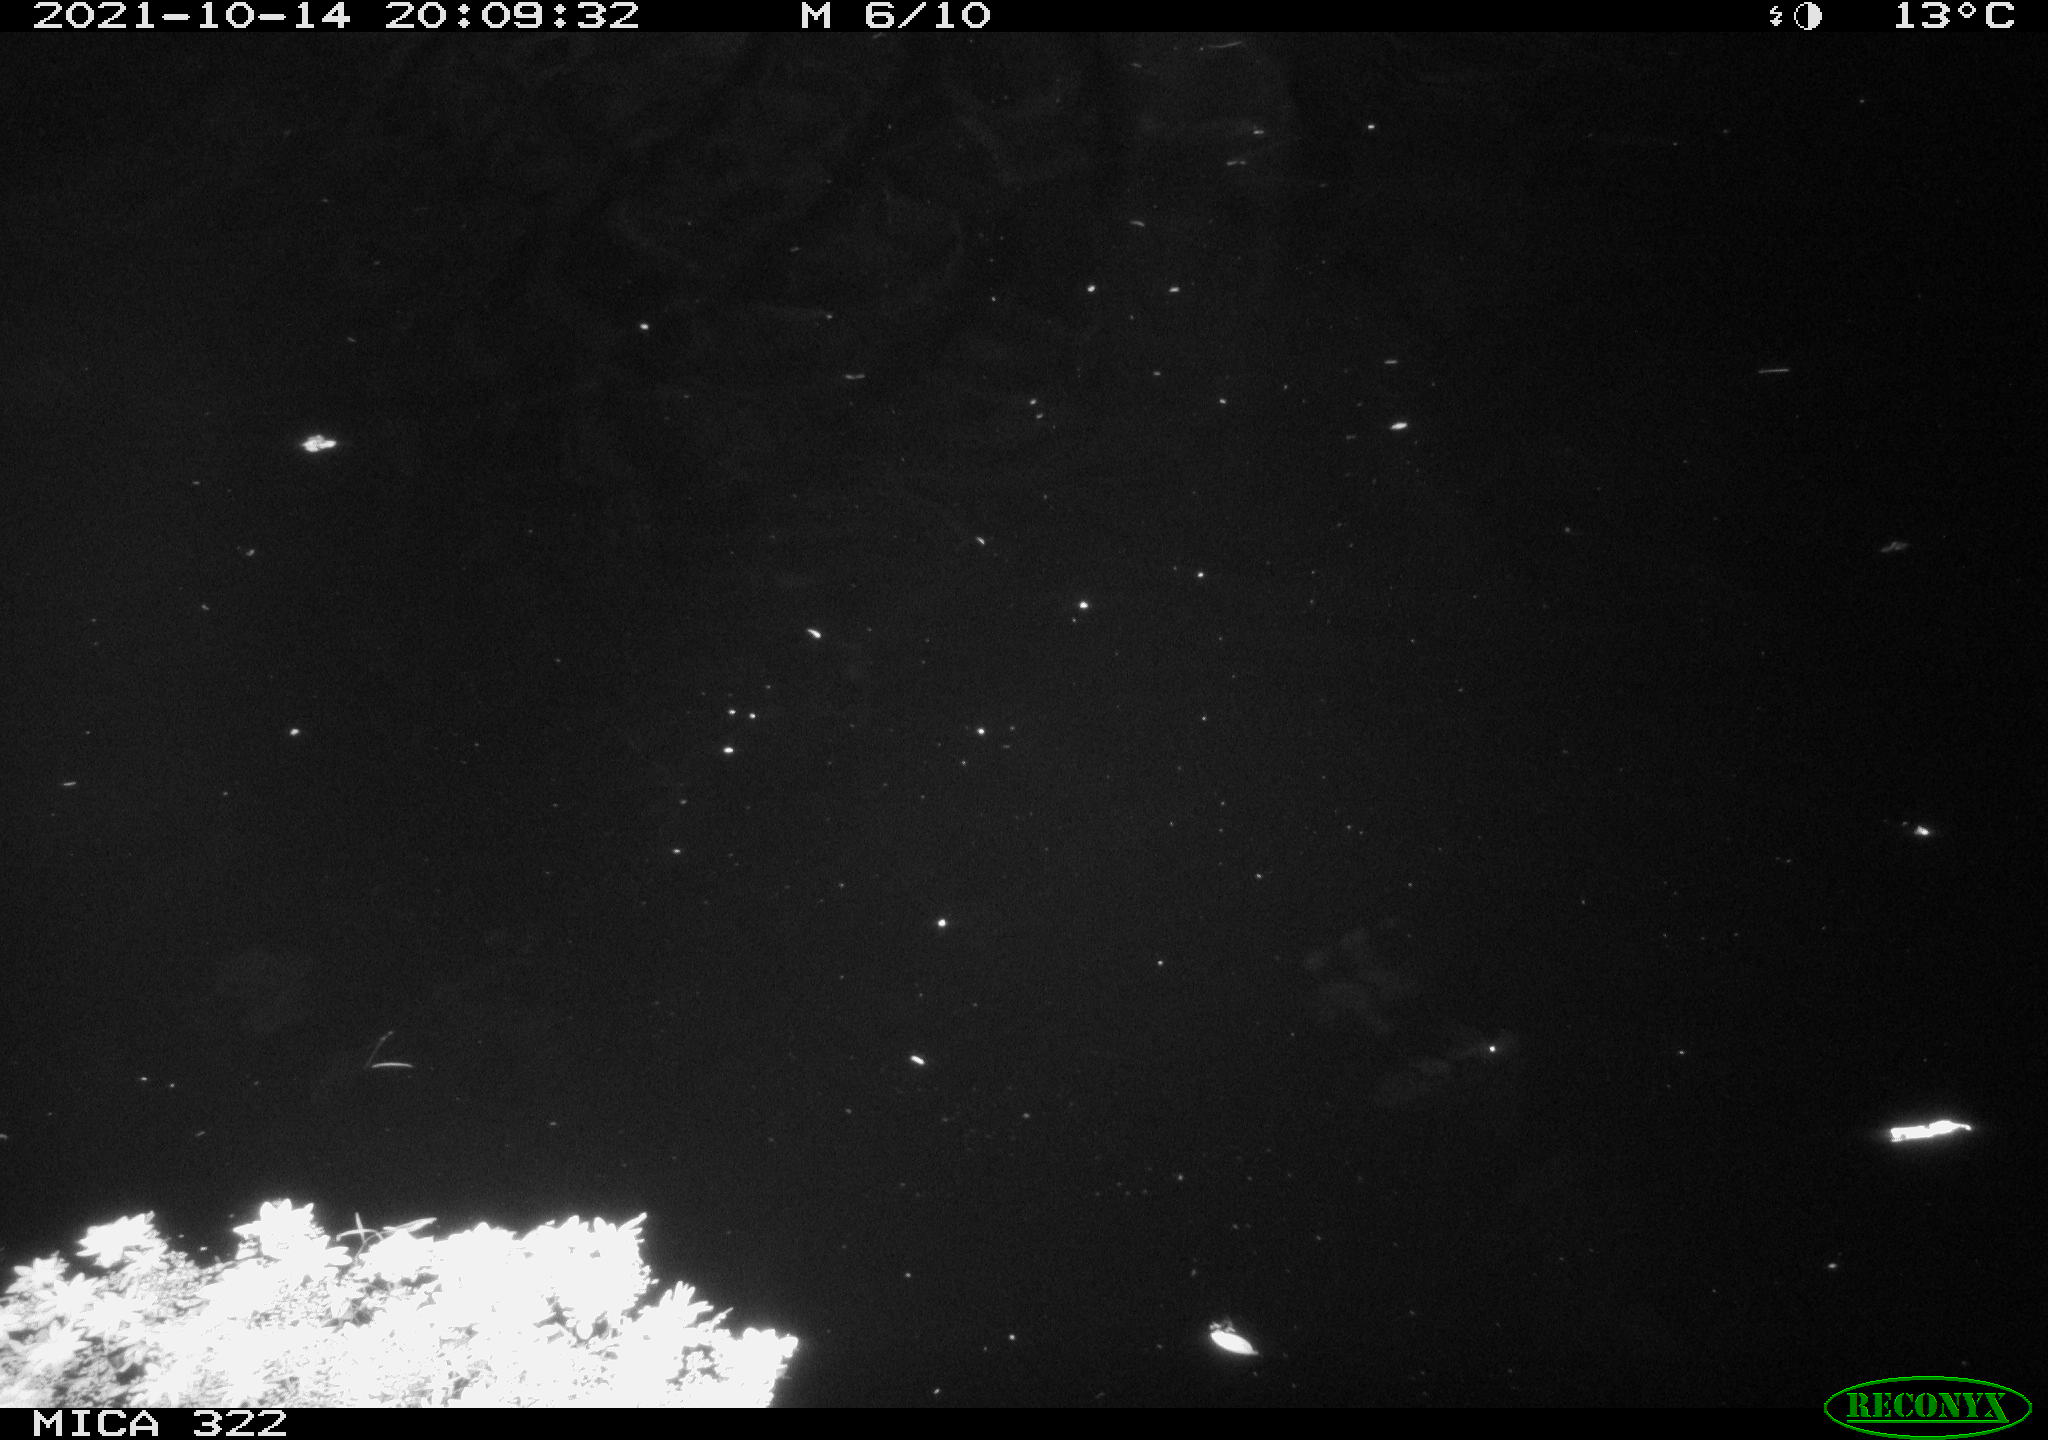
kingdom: Animalia
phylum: Chordata
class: Mammalia
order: Rodentia
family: Muridae
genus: Rattus
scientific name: Rattus norvegicus
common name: Brown rat
